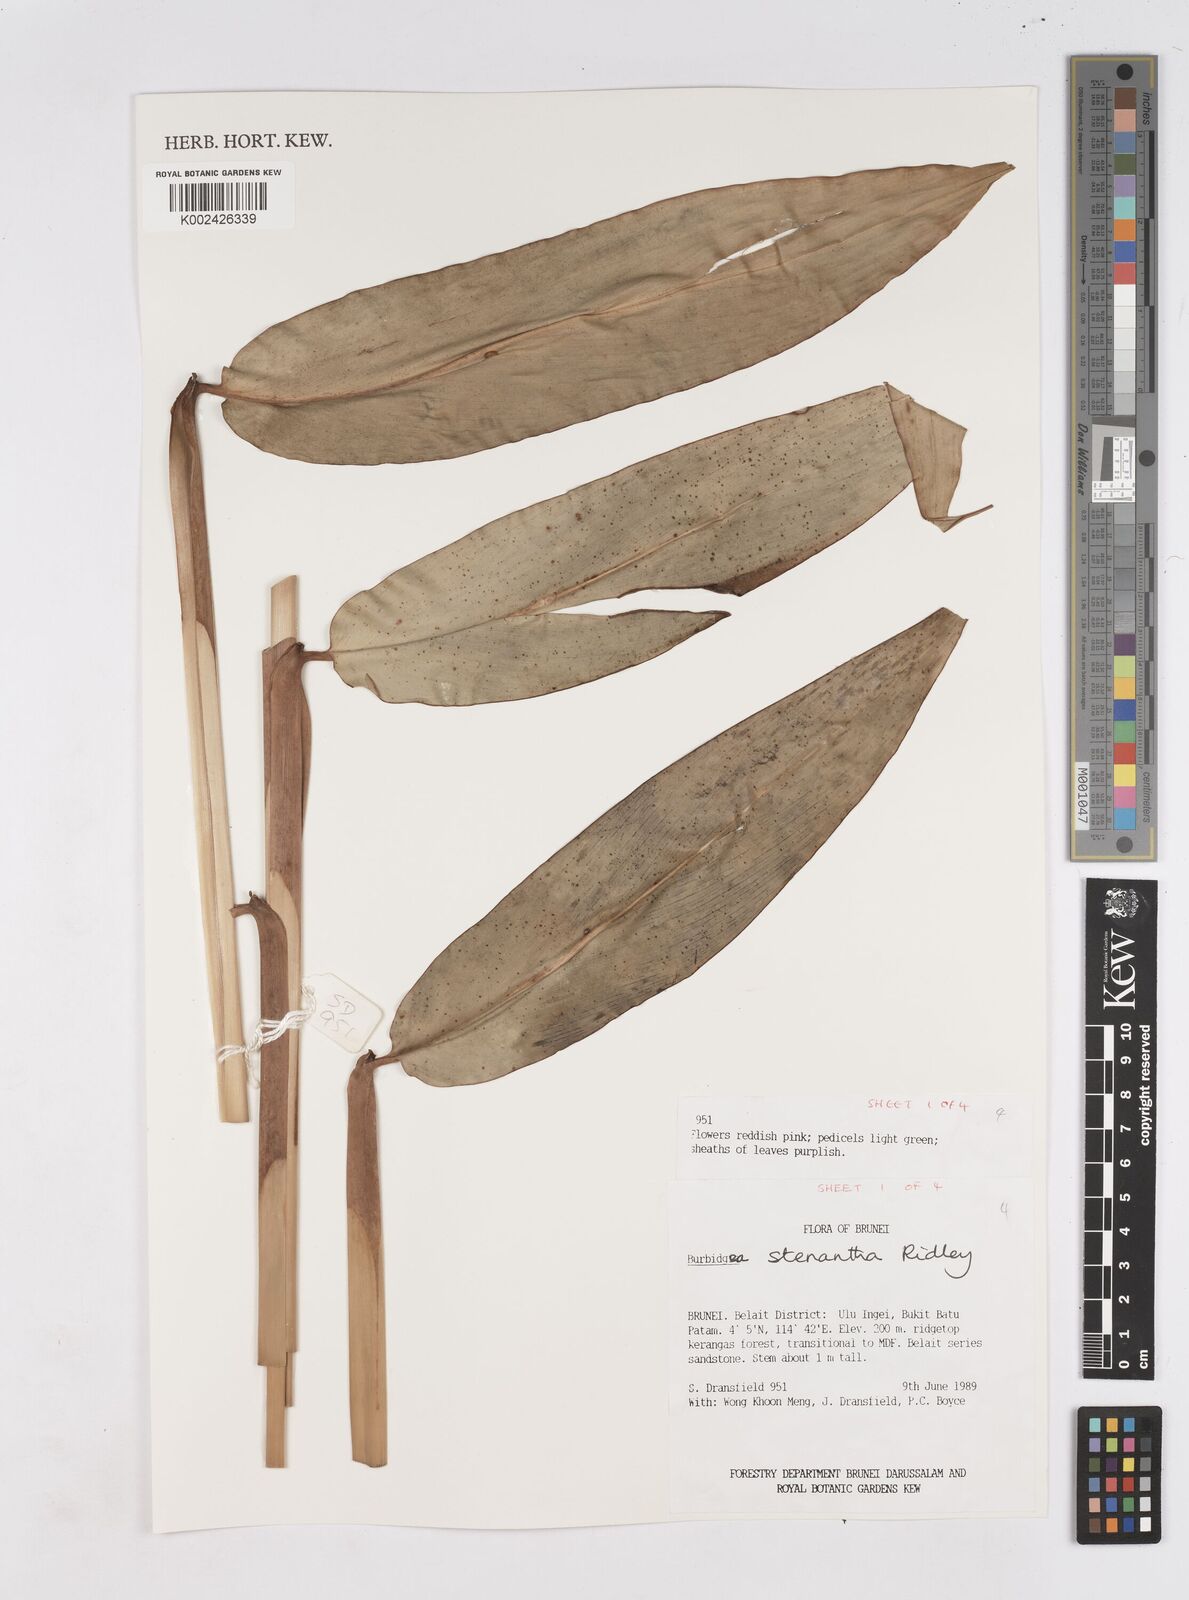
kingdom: Plantae
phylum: Tracheophyta
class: Liliopsida
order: Zingiberales
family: Zingiberaceae
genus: Burbidgea
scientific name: Burbidgea stenantha
